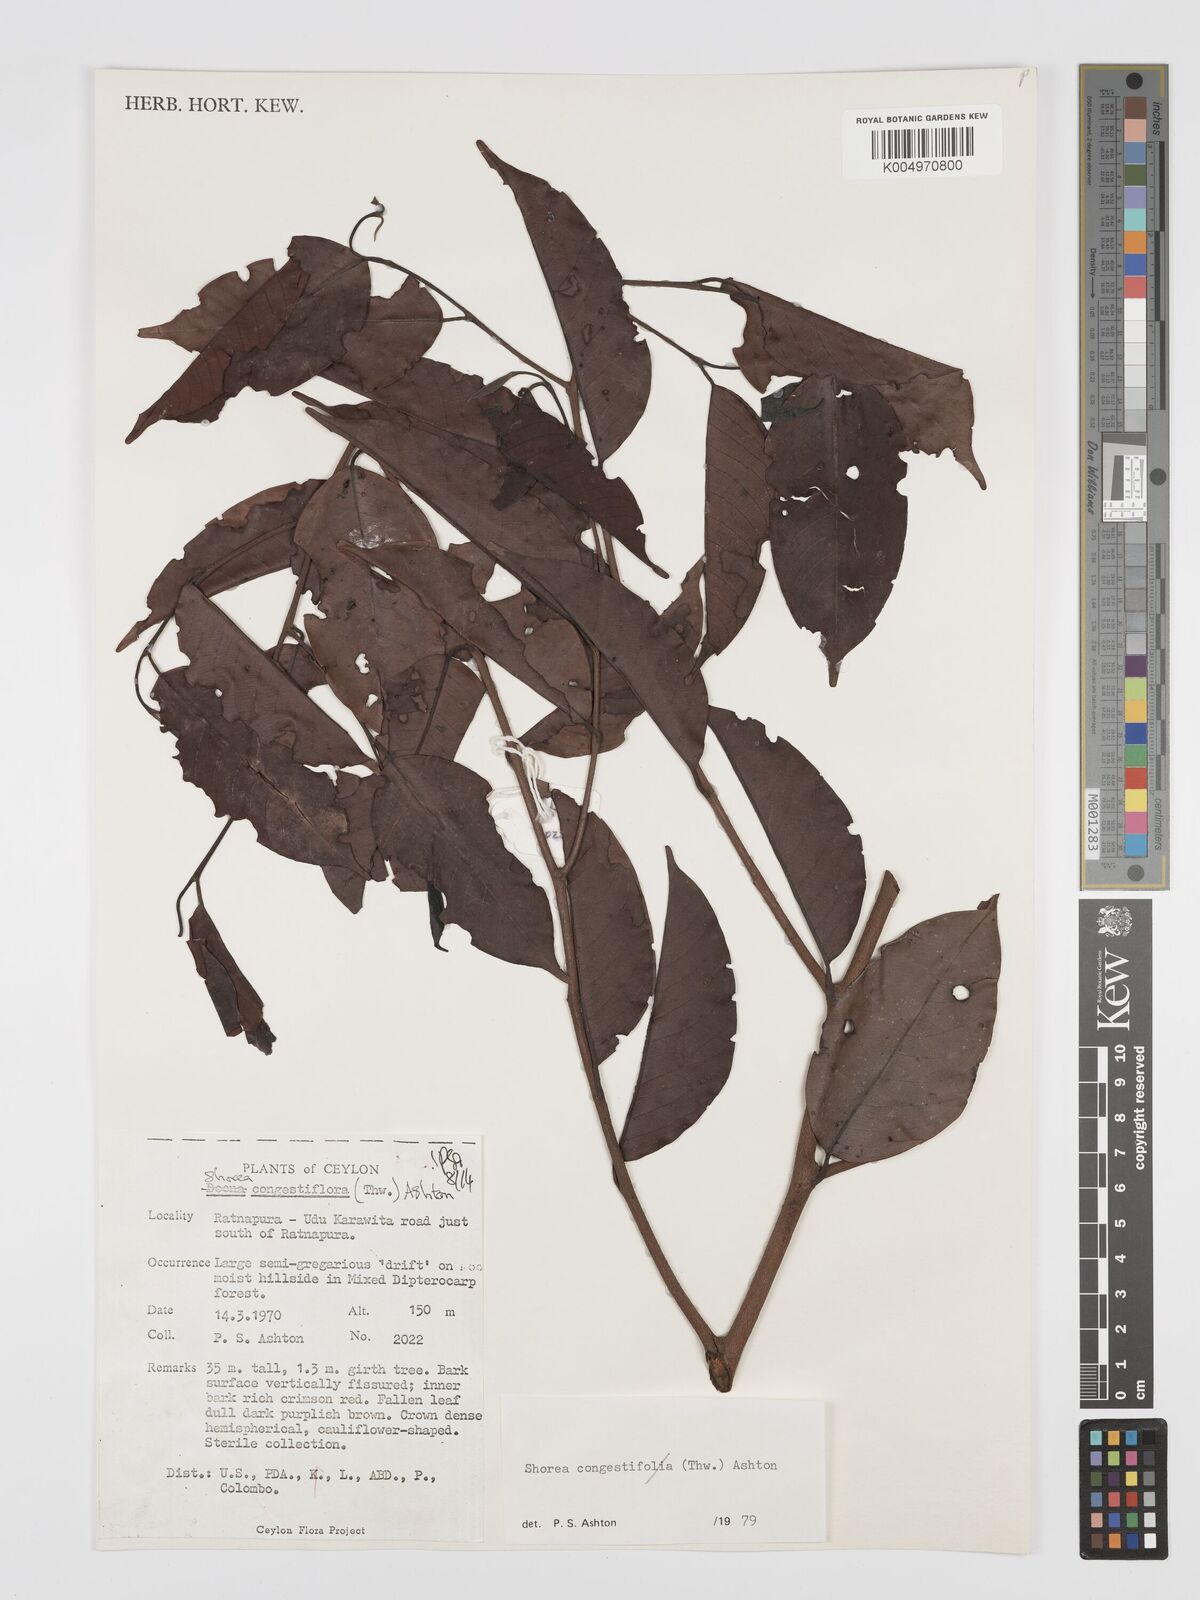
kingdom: Plantae
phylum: Tracheophyta
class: Magnoliopsida
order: Malvales
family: Dipterocarpaceae
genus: Doona
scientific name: Doona congestiflora
